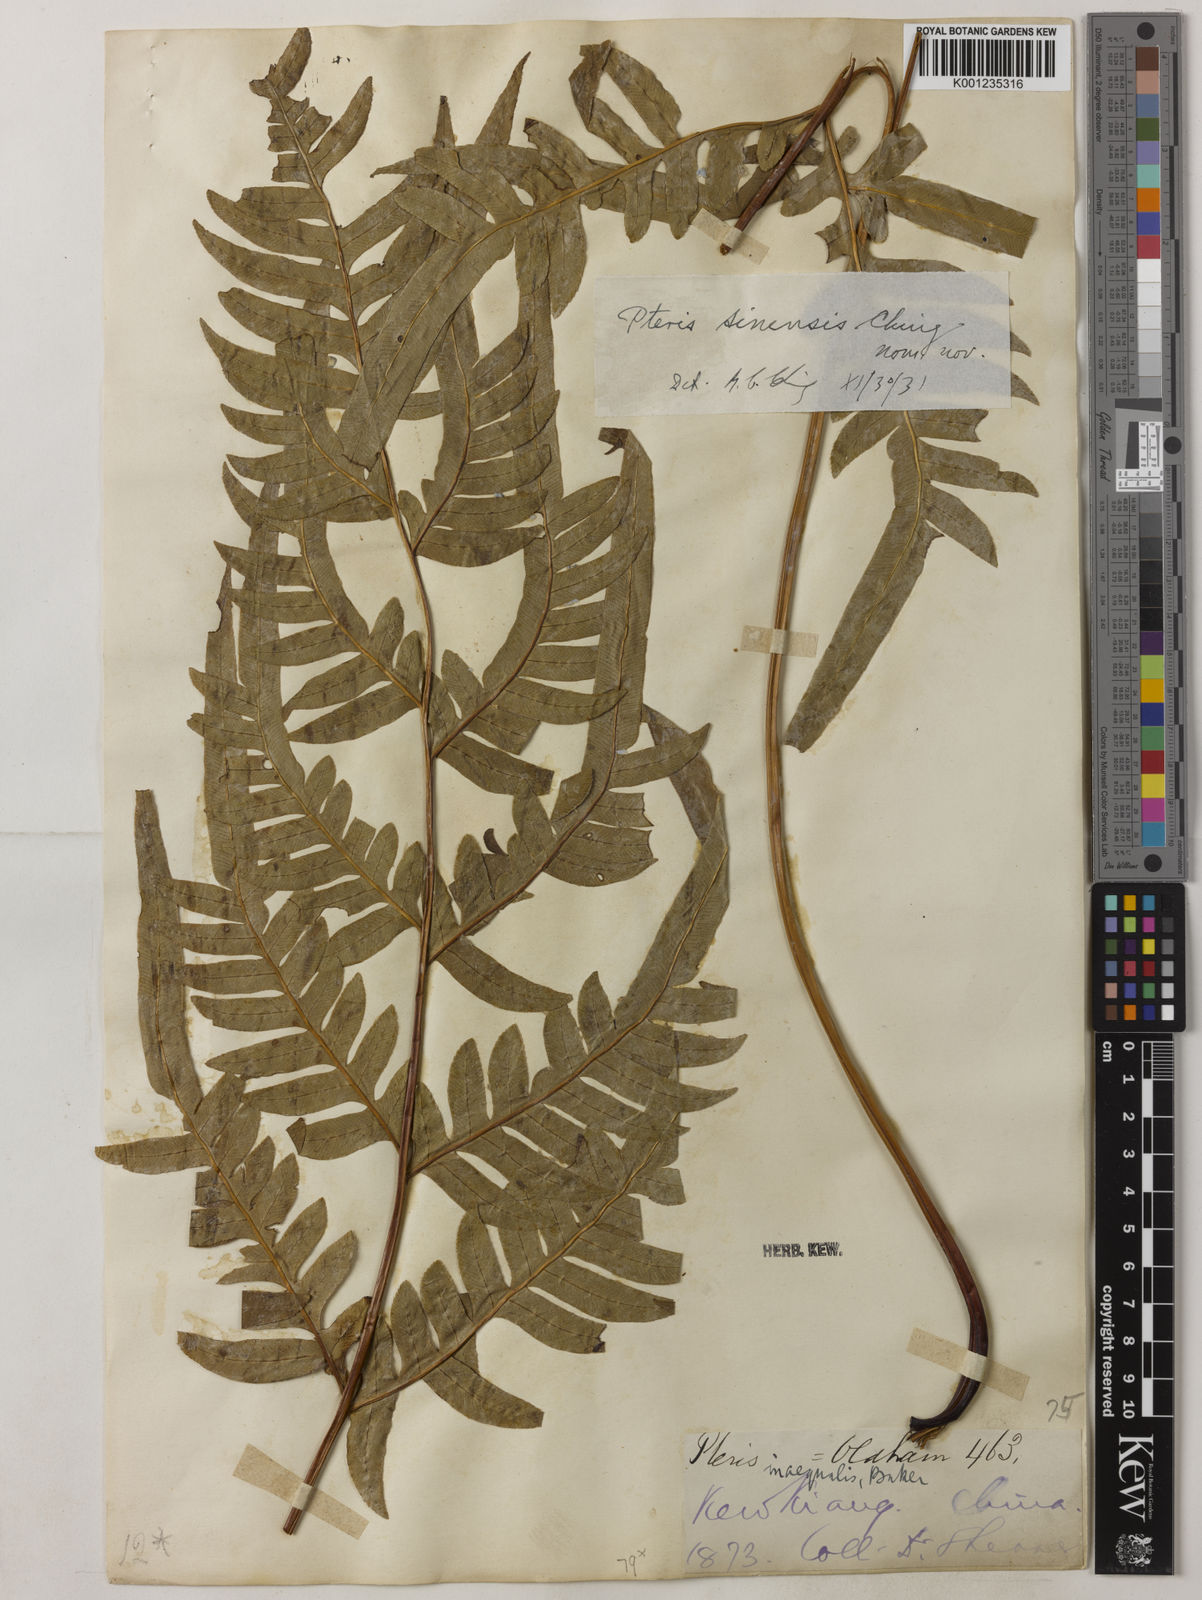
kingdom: Plantae
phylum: Tracheophyta
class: Polypodiopsida
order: Polypodiales
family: Pteridaceae
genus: Pteris
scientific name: Pteris sinensis
